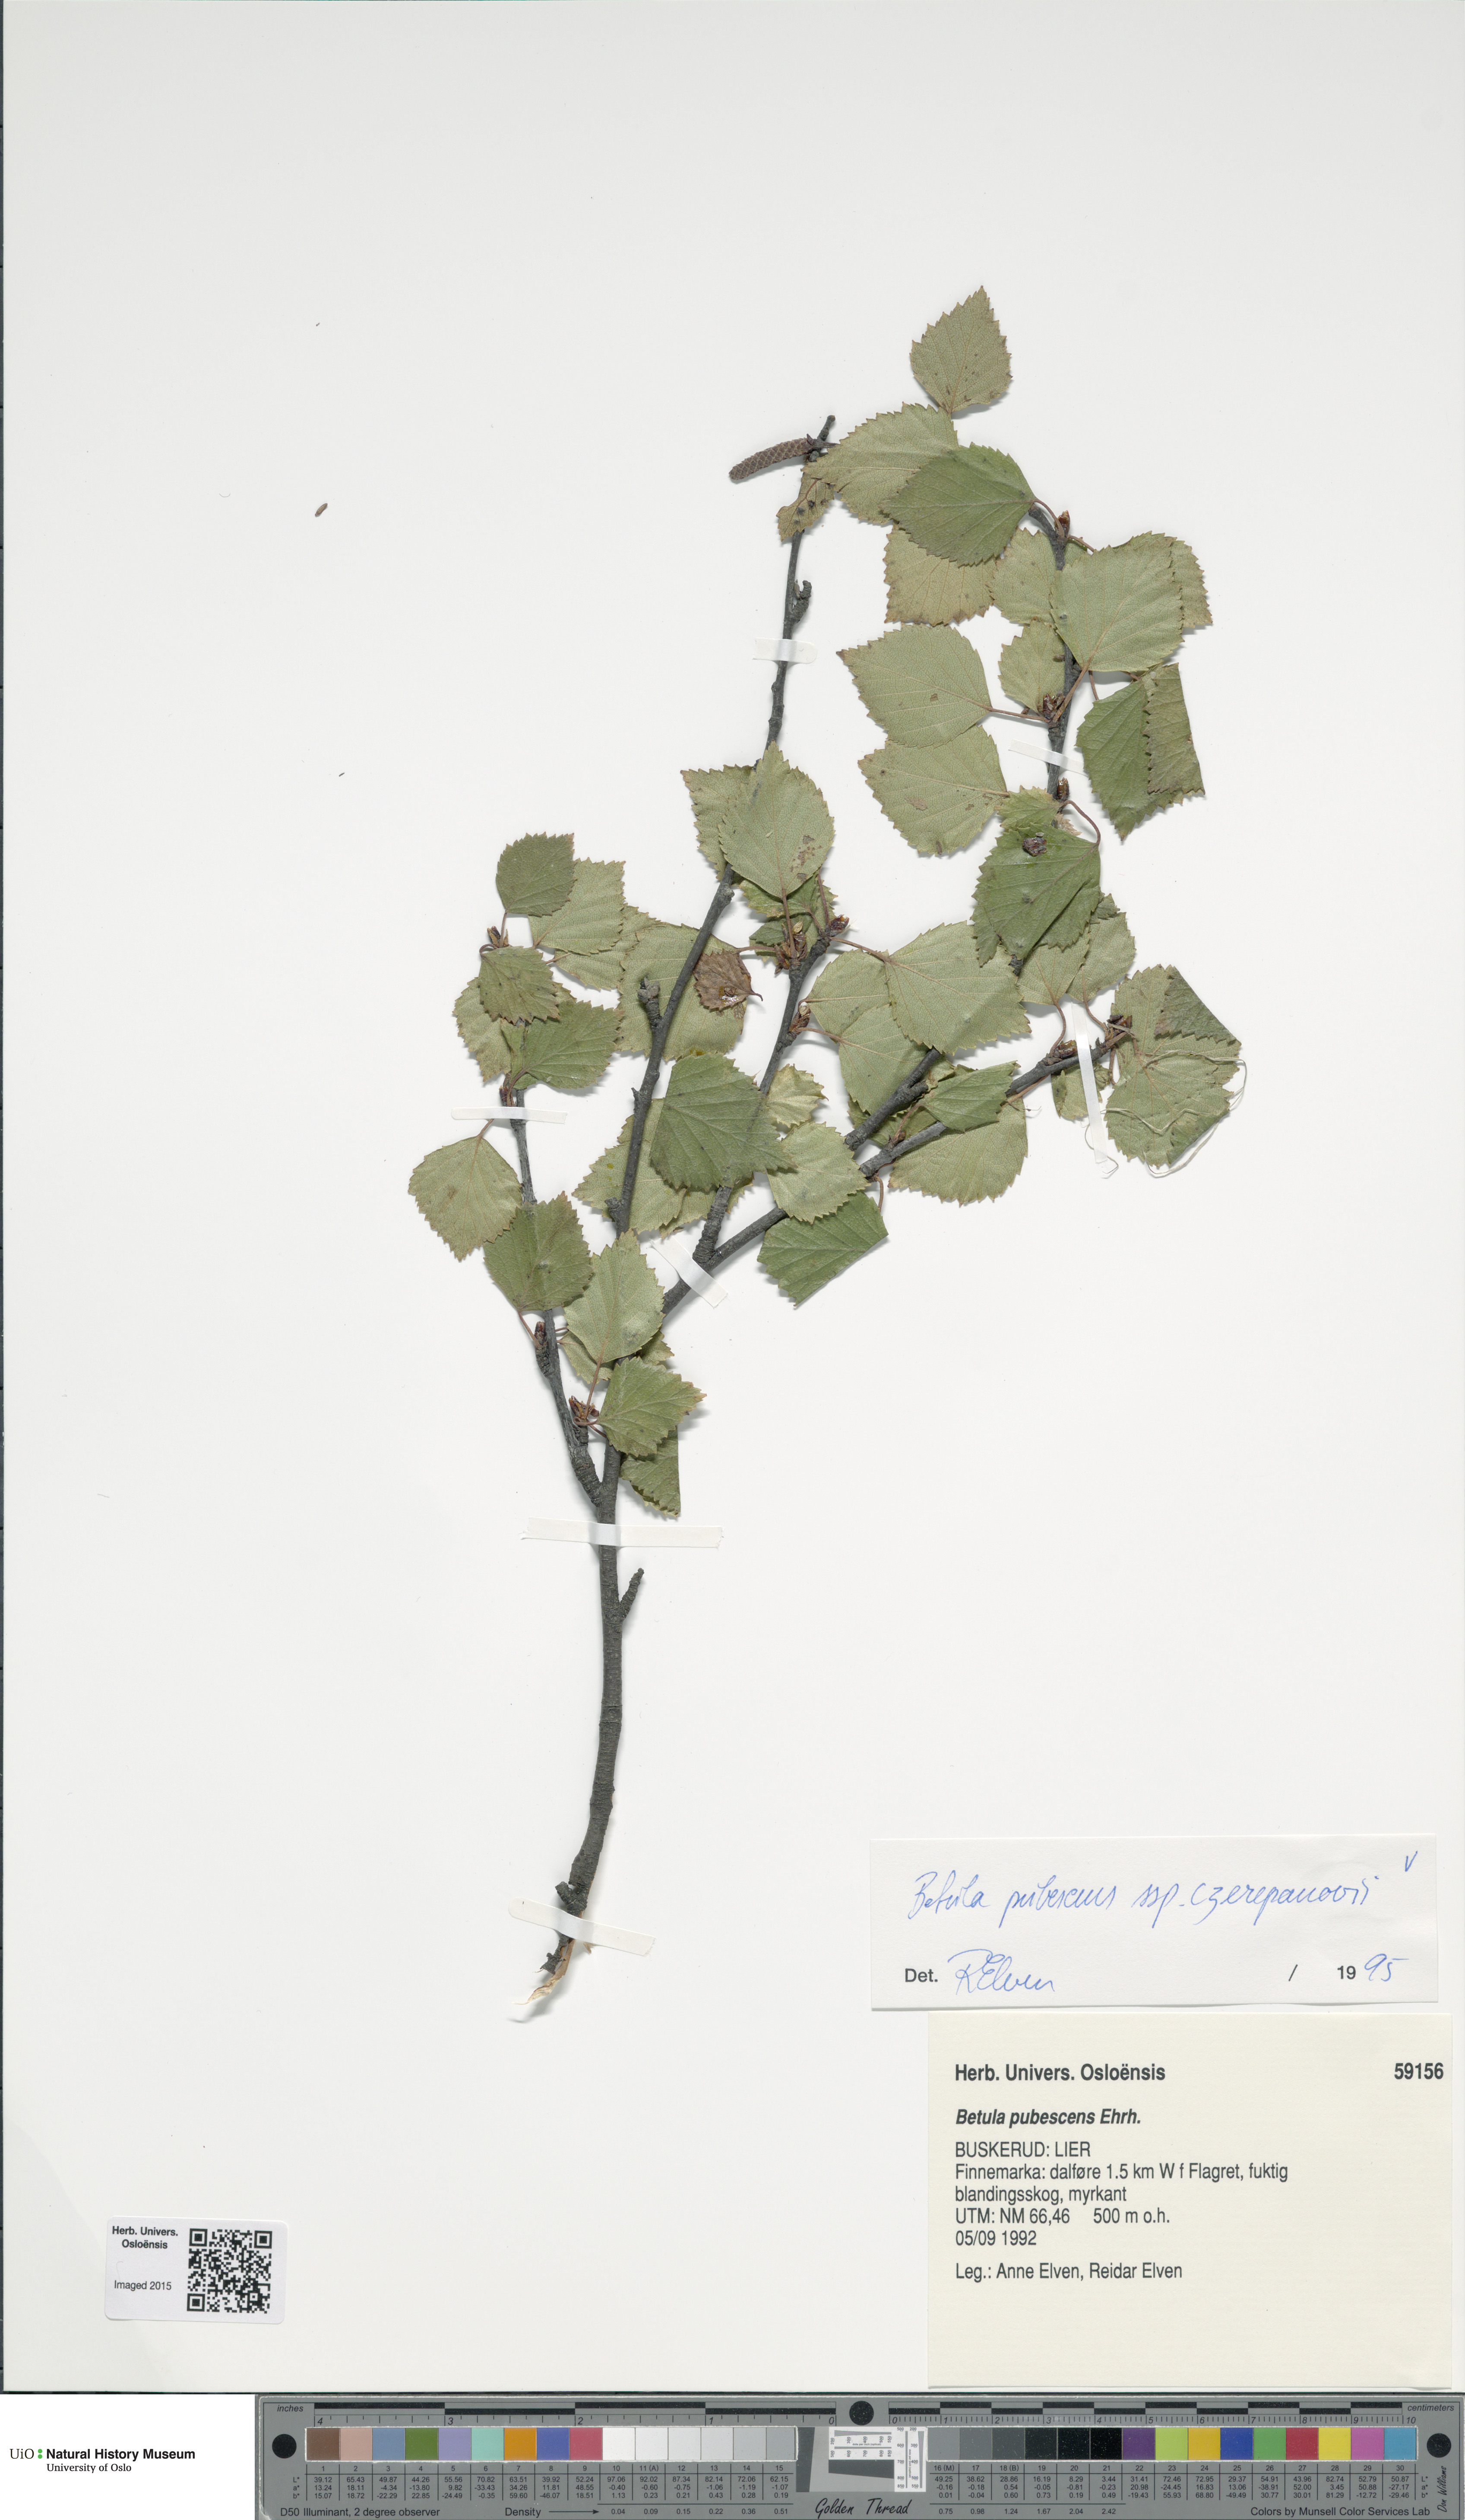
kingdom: Plantae
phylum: Tracheophyta
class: Magnoliopsida
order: Fagales
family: Betulaceae
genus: Betula
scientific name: Betula pubescens
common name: Downy birch
